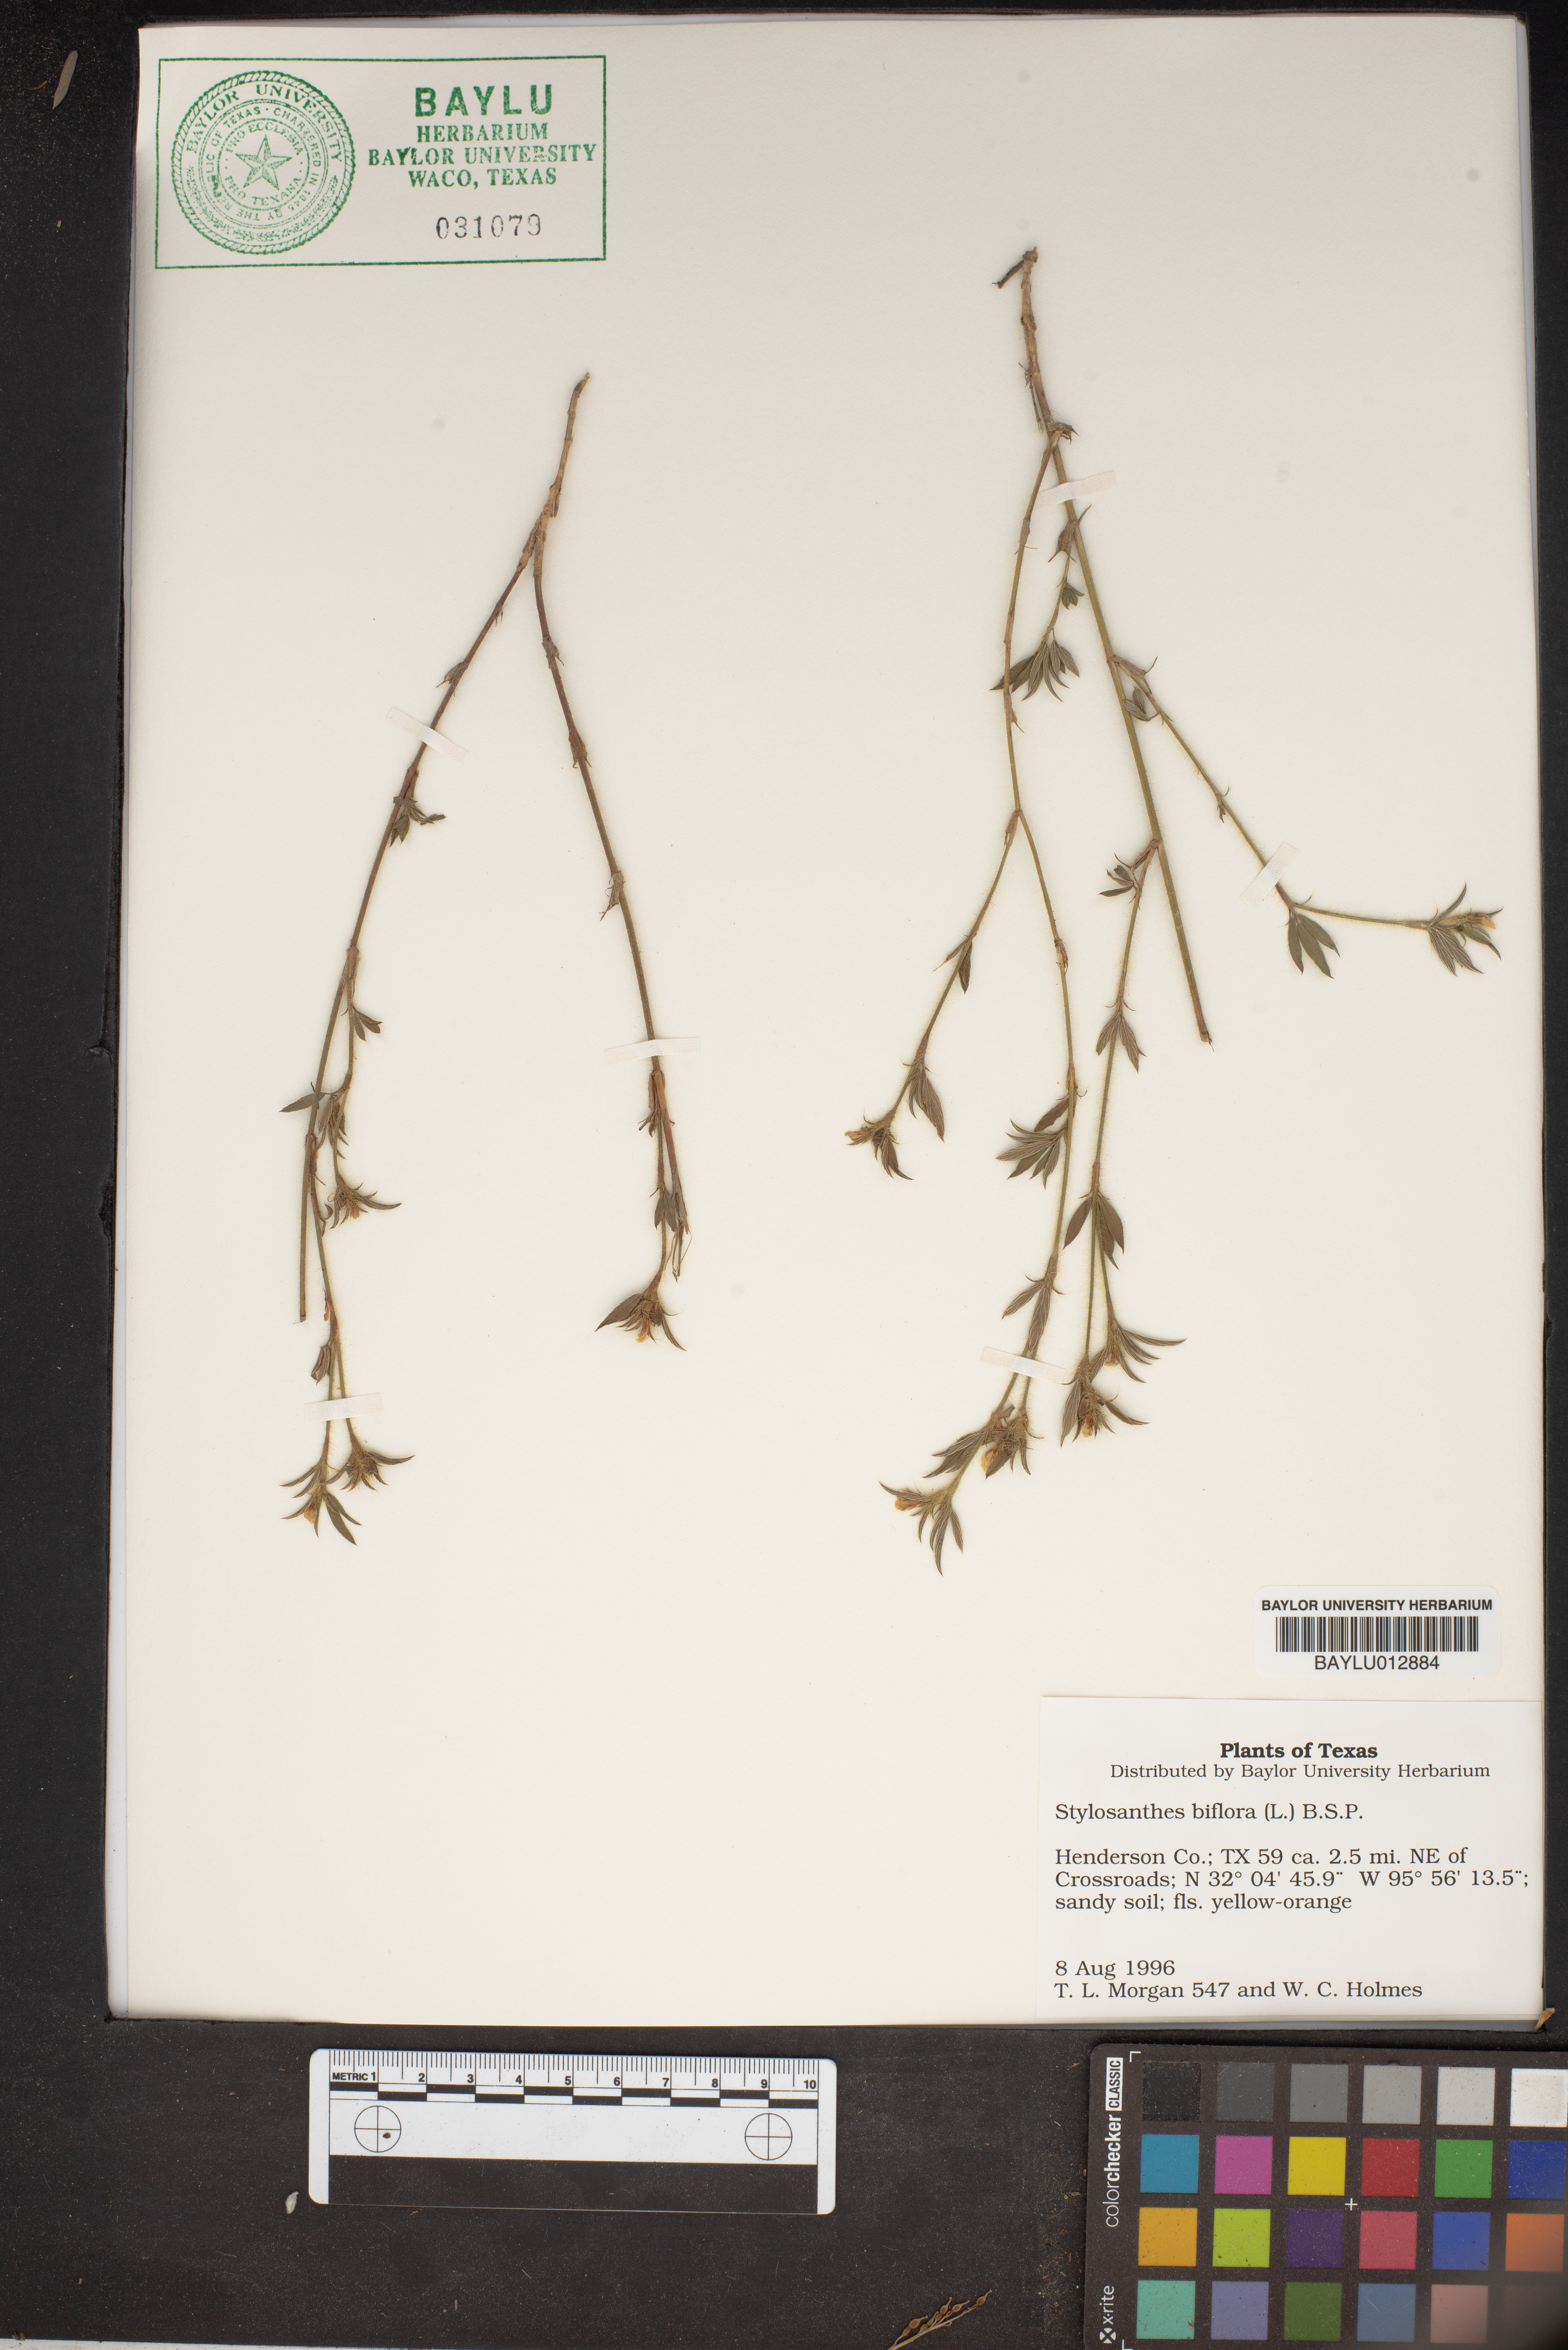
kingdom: Plantae
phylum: Tracheophyta
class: Magnoliopsida
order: Fabales
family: Fabaceae
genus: Stylosanthes
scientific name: Stylosanthes biflora
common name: Two-flower pencil-flower
